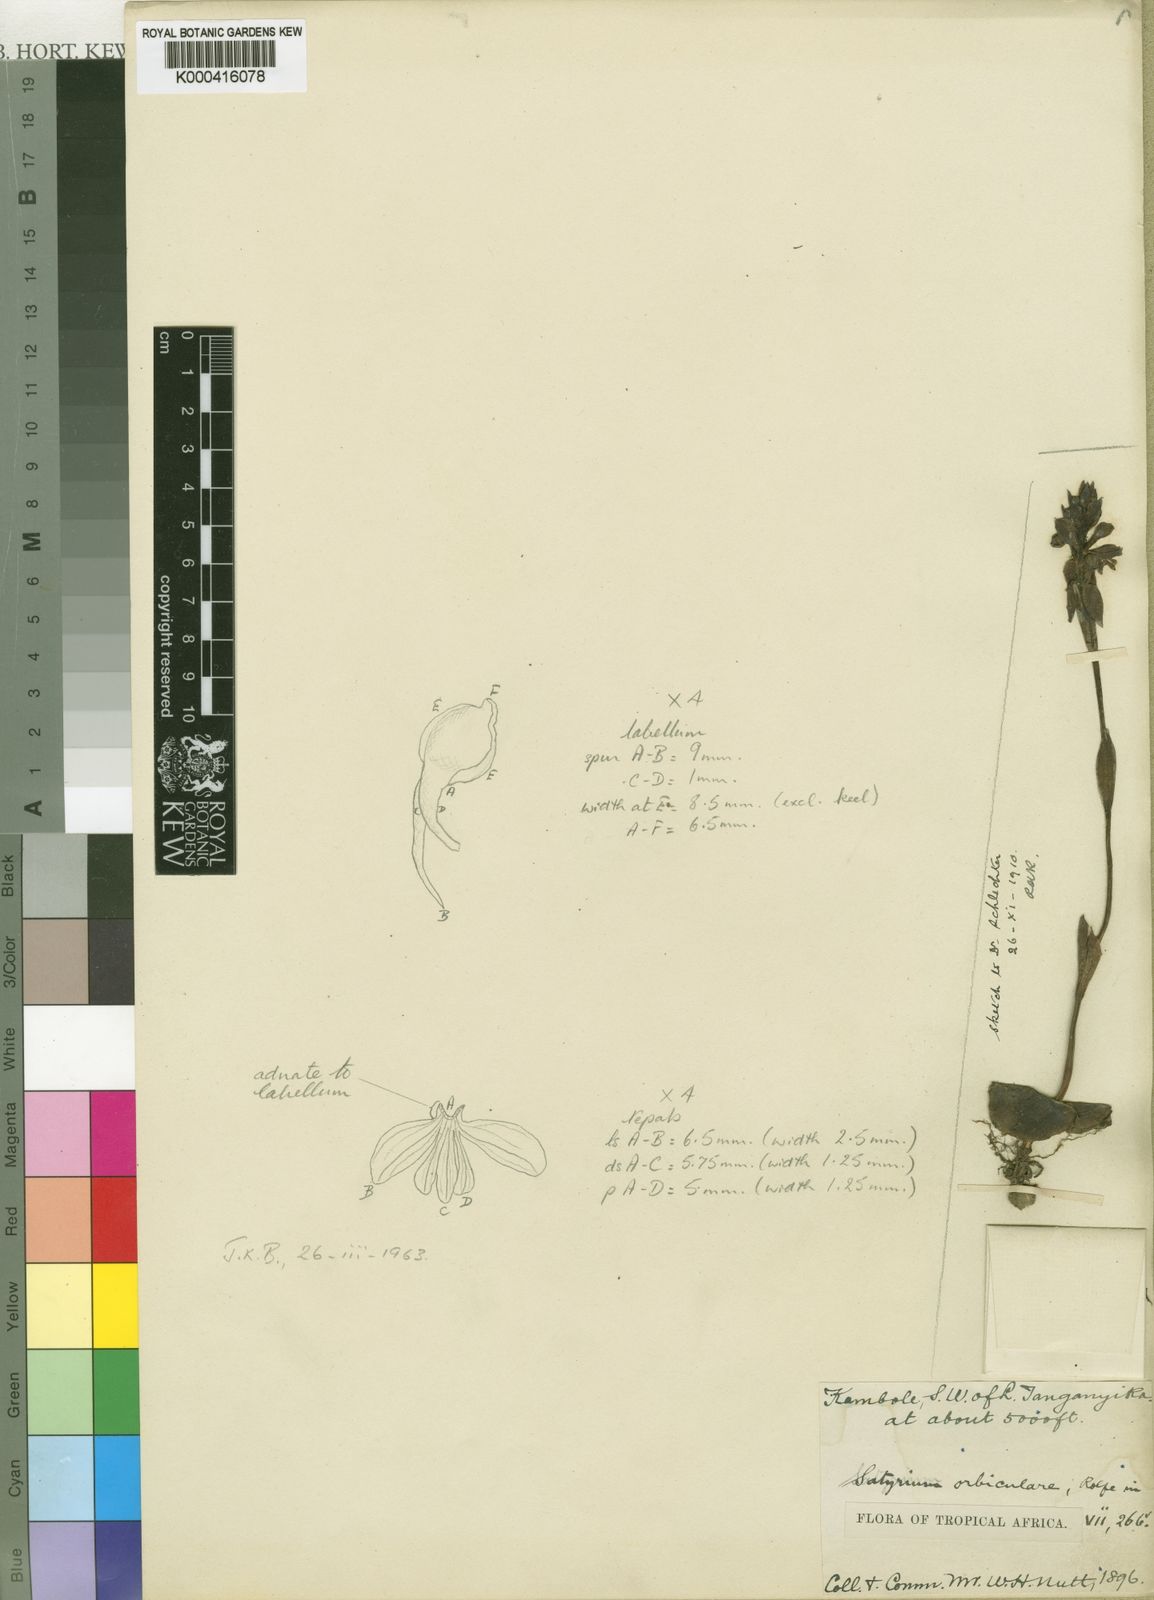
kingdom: Plantae
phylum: Tracheophyta
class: Liliopsida
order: Asparagales
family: Orchidaceae
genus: Satyrium
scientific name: Satyrium orbiculare
